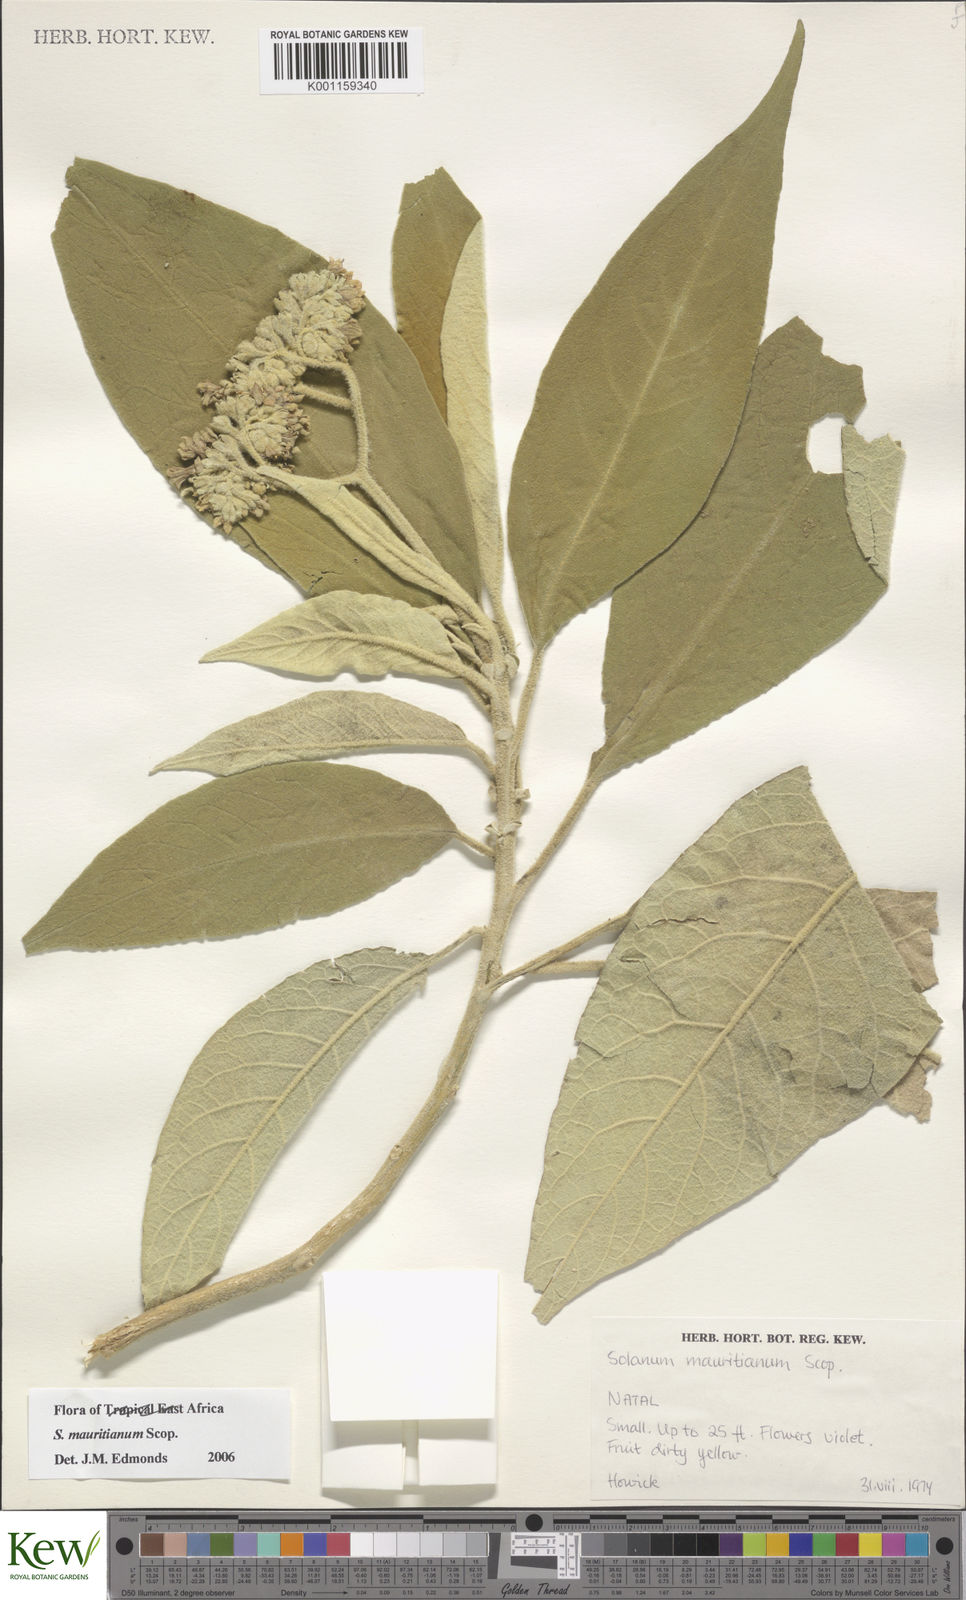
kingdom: Plantae
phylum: Tracheophyta
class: Magnoliopsida
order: Solanales
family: Solanaceae
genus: Solanum
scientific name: Solanum mauritianum
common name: Earleaf nightshade
